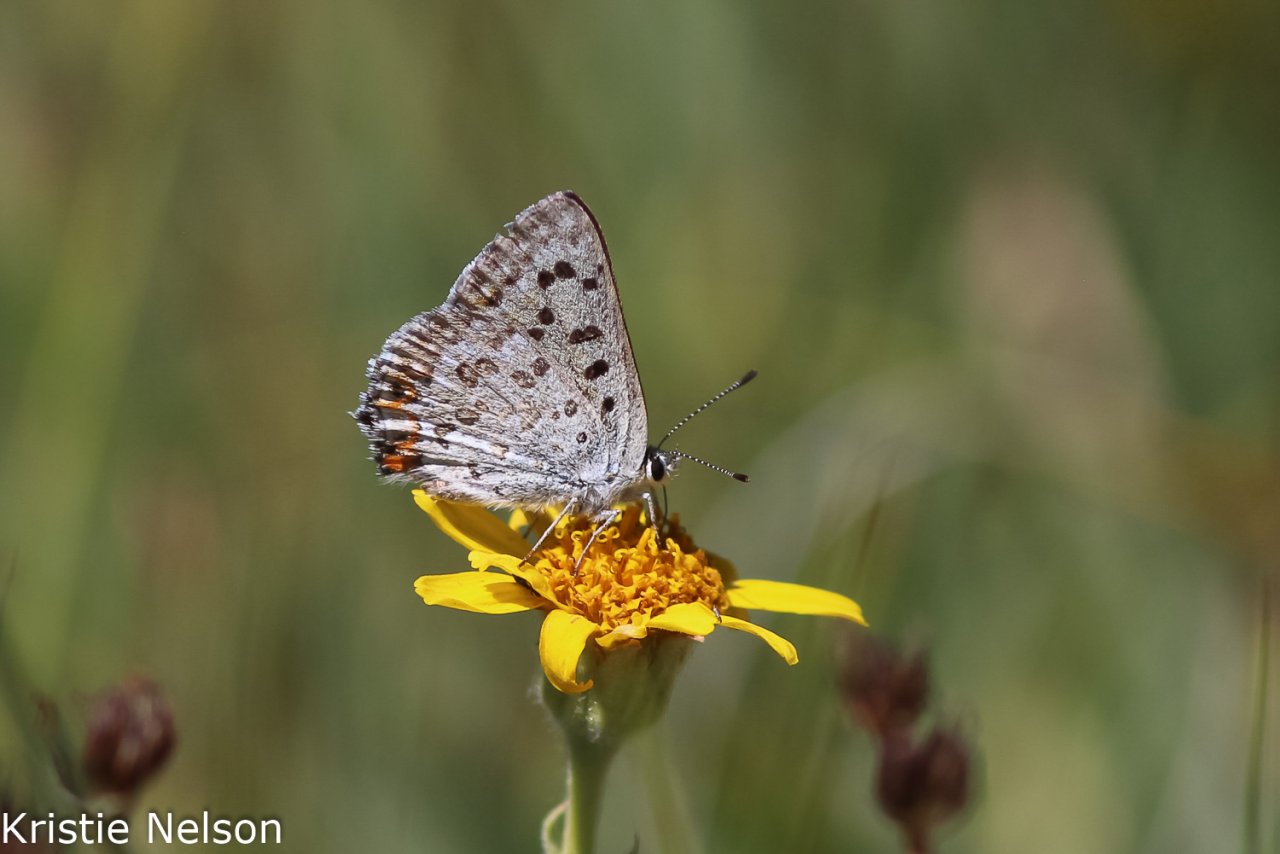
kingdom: Animalia
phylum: Arthropoda
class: Insecta
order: Lepidoptera
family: Lycaenidae
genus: Lycaena
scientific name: Lycaena editha
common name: Edith's Copper
